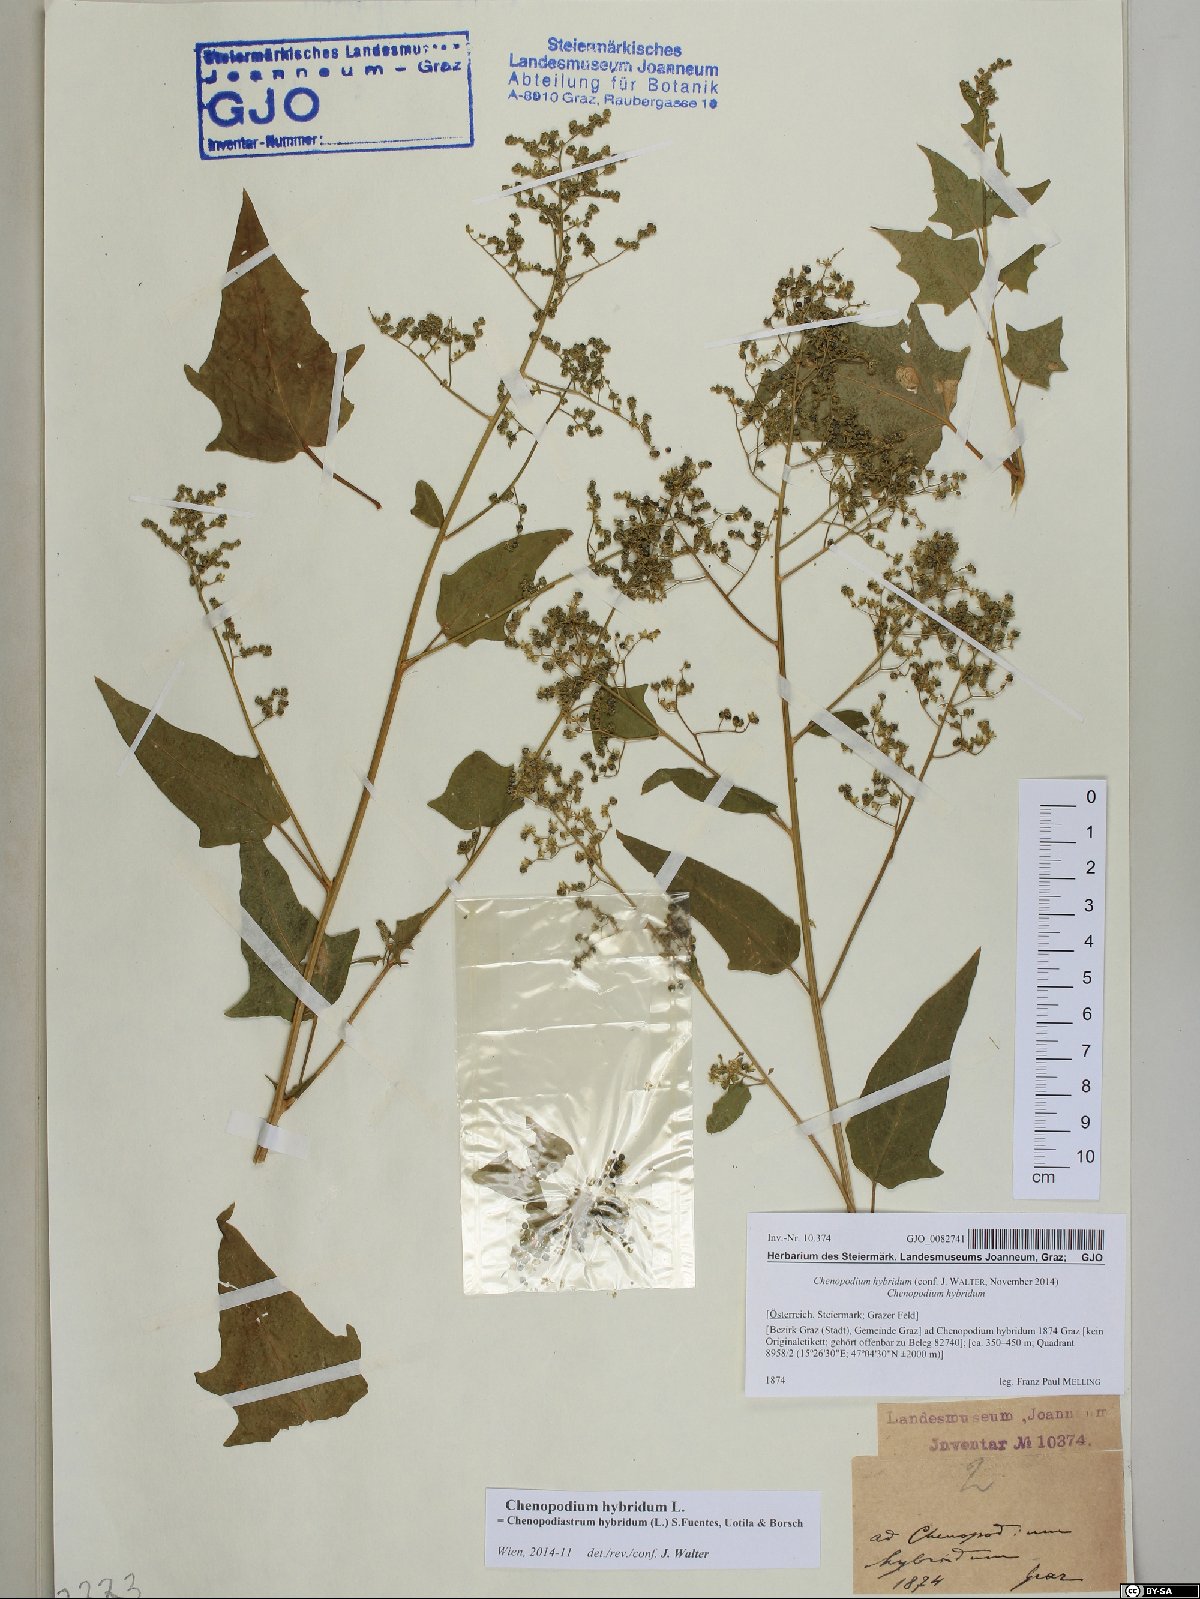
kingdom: Plantae
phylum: Tracheophyta
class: Magnoliopsida
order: Caryophyllales
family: Amaranthaceae
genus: Chenopodiastrum
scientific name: Chenopodiastrum hybridum
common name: Mapleleaf goosefoot
